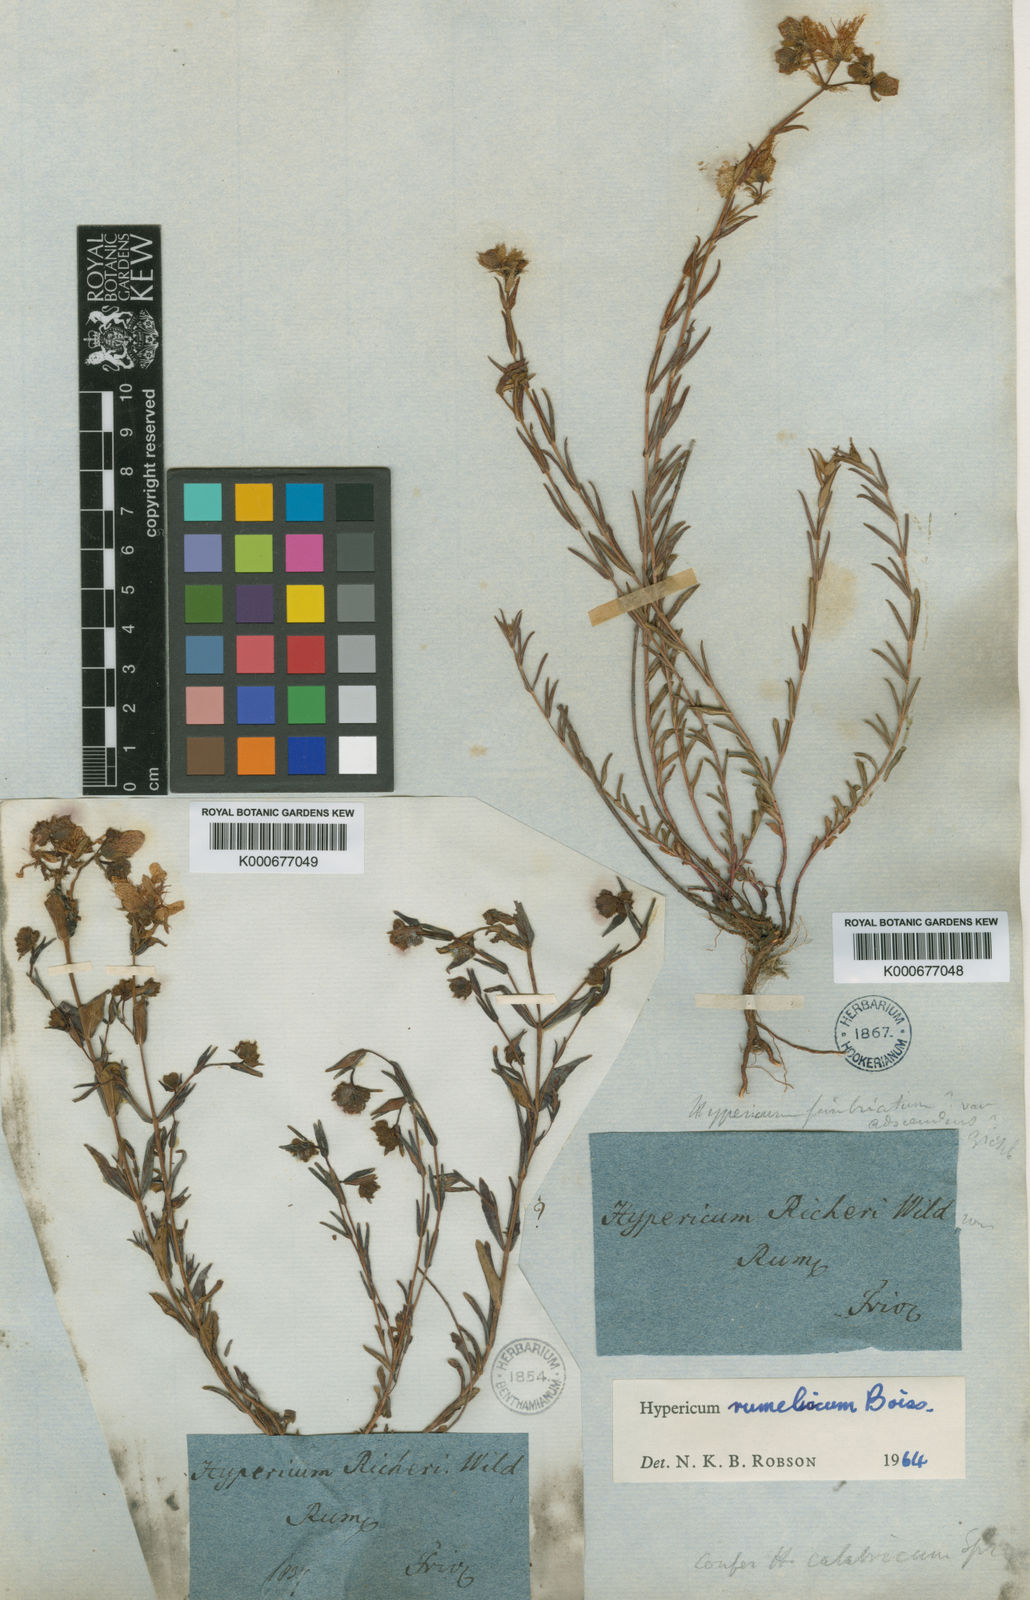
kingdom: Plantae
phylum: Tracheophyta
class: Magnoliopsida
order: Malpighiales
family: Hypericaceae
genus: Hypericum
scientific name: Hypericum rumeliacum
